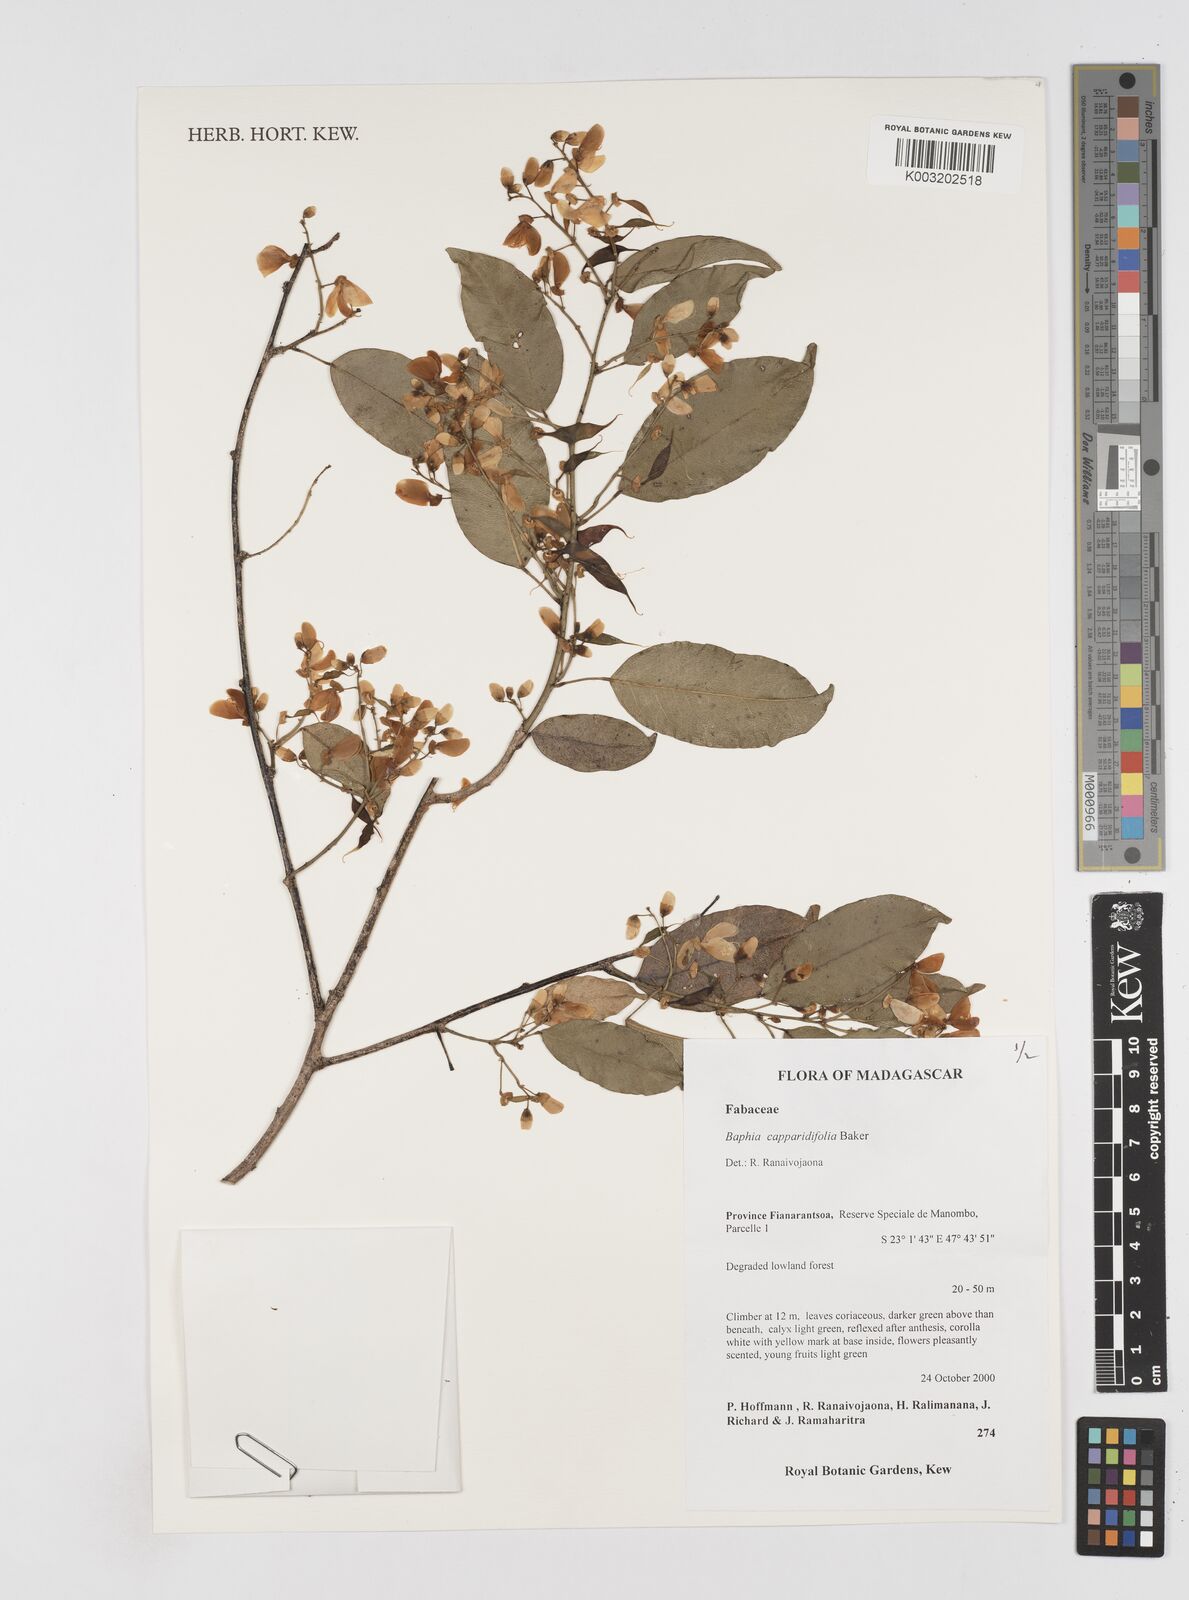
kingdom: Plantae
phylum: Tracheophyta
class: Magnoliopsida
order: Fabales
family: Fabaceae
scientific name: Fabaceae
